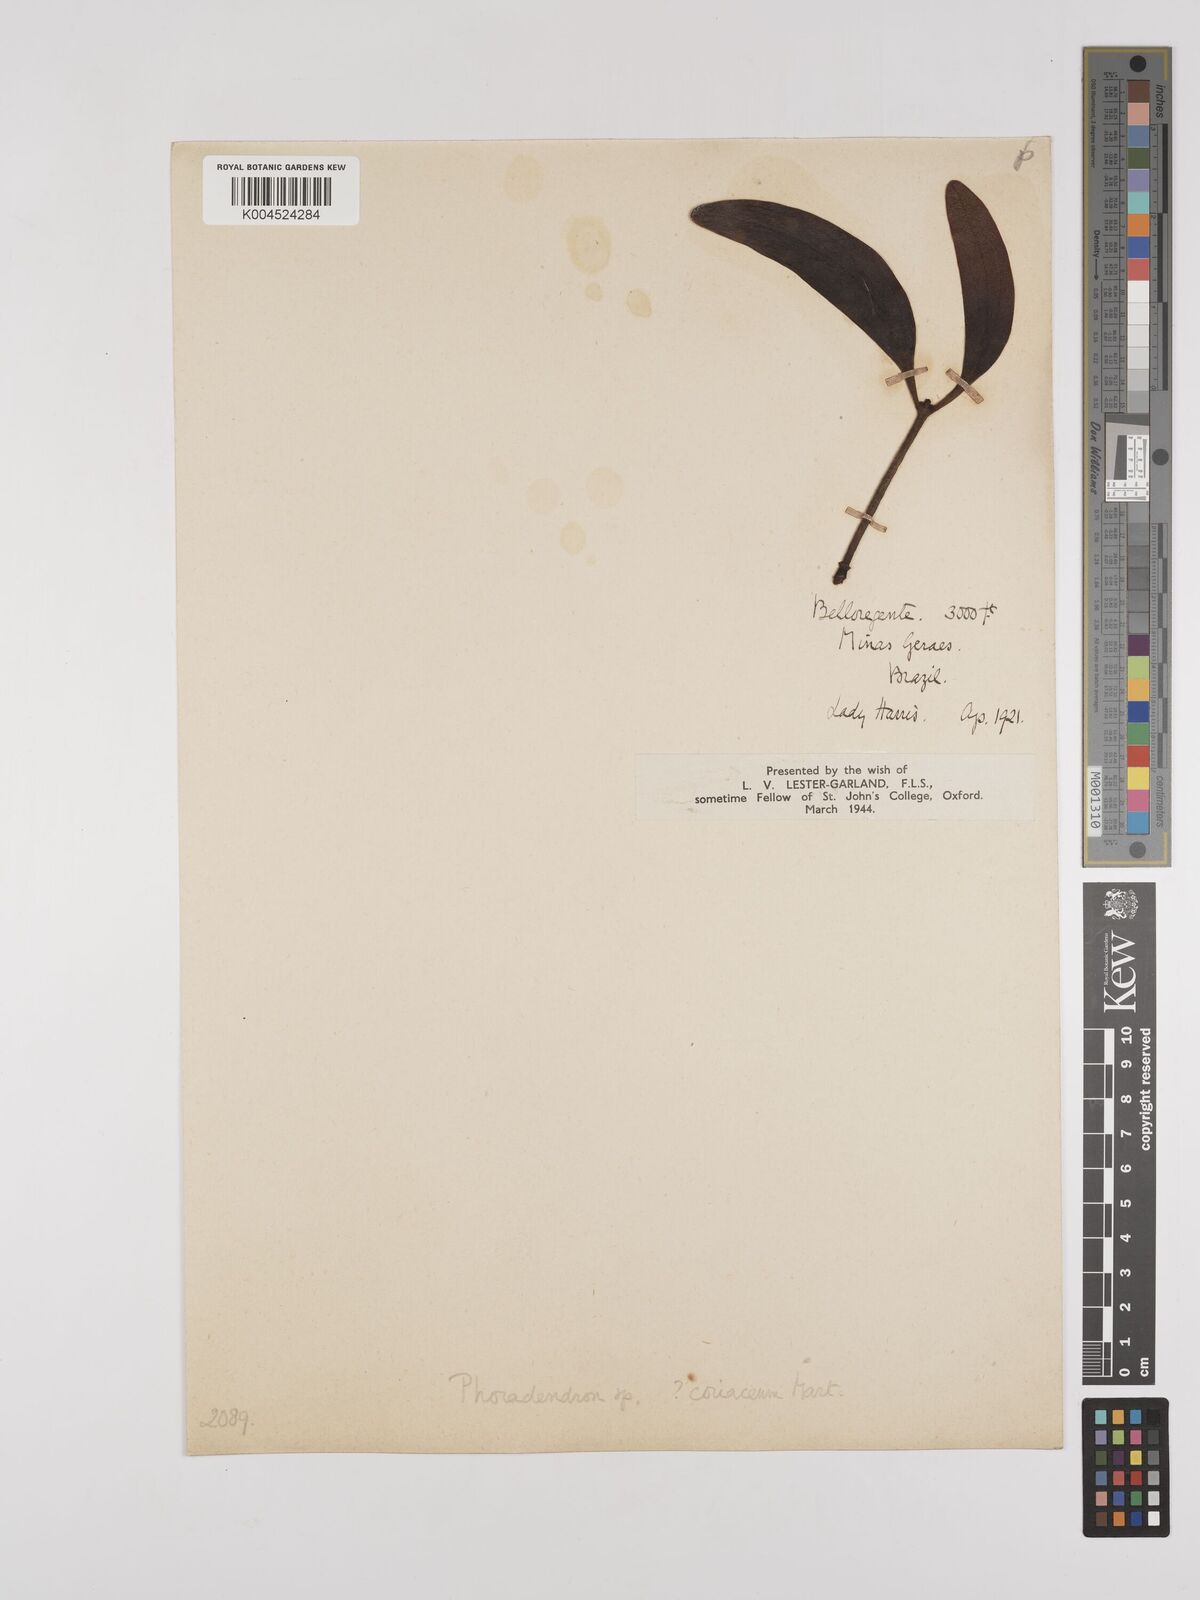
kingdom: Plantae
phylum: Tracheophyta
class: Magnoliopsida
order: Santalales
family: Viscaceae
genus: Phoradendron
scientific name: Phoradendron coriaceum
